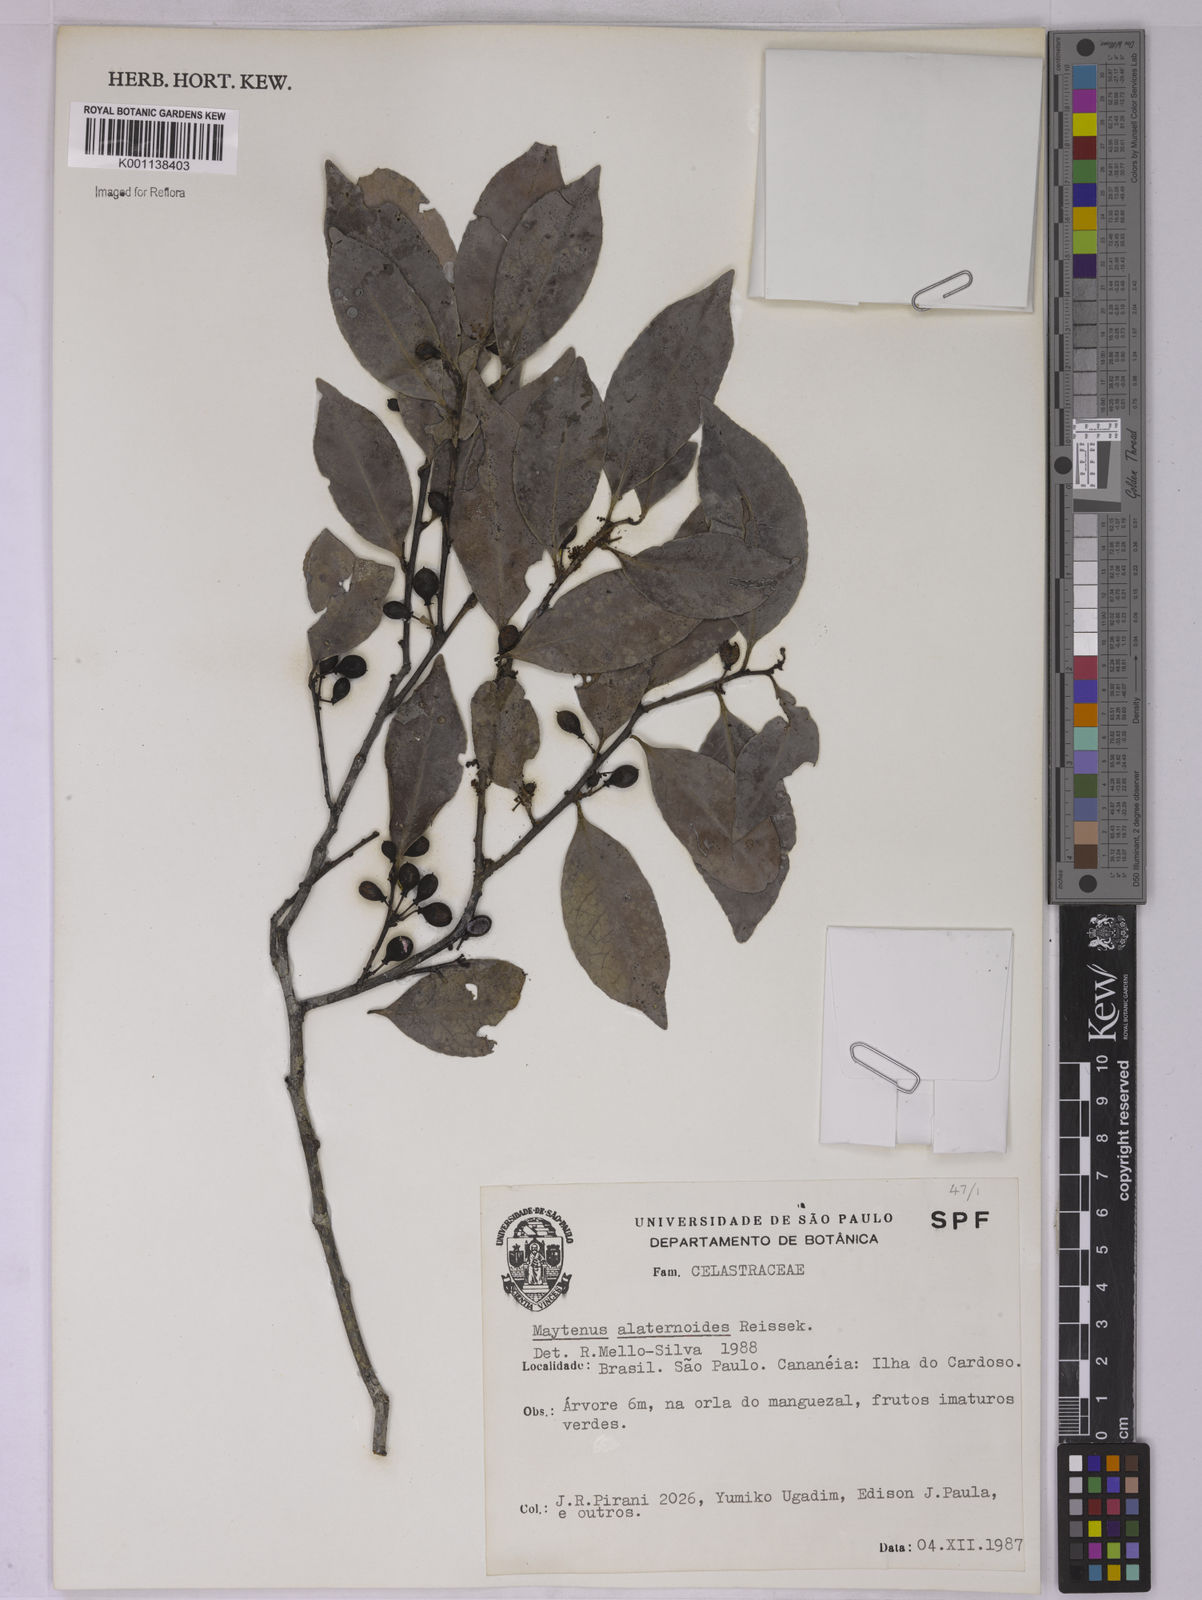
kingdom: Plantae
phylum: Tracheophyta
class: Magnoliopsida
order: Celastrales
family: Celastraceae
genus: Maytenus
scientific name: Maytenus alaternoides
